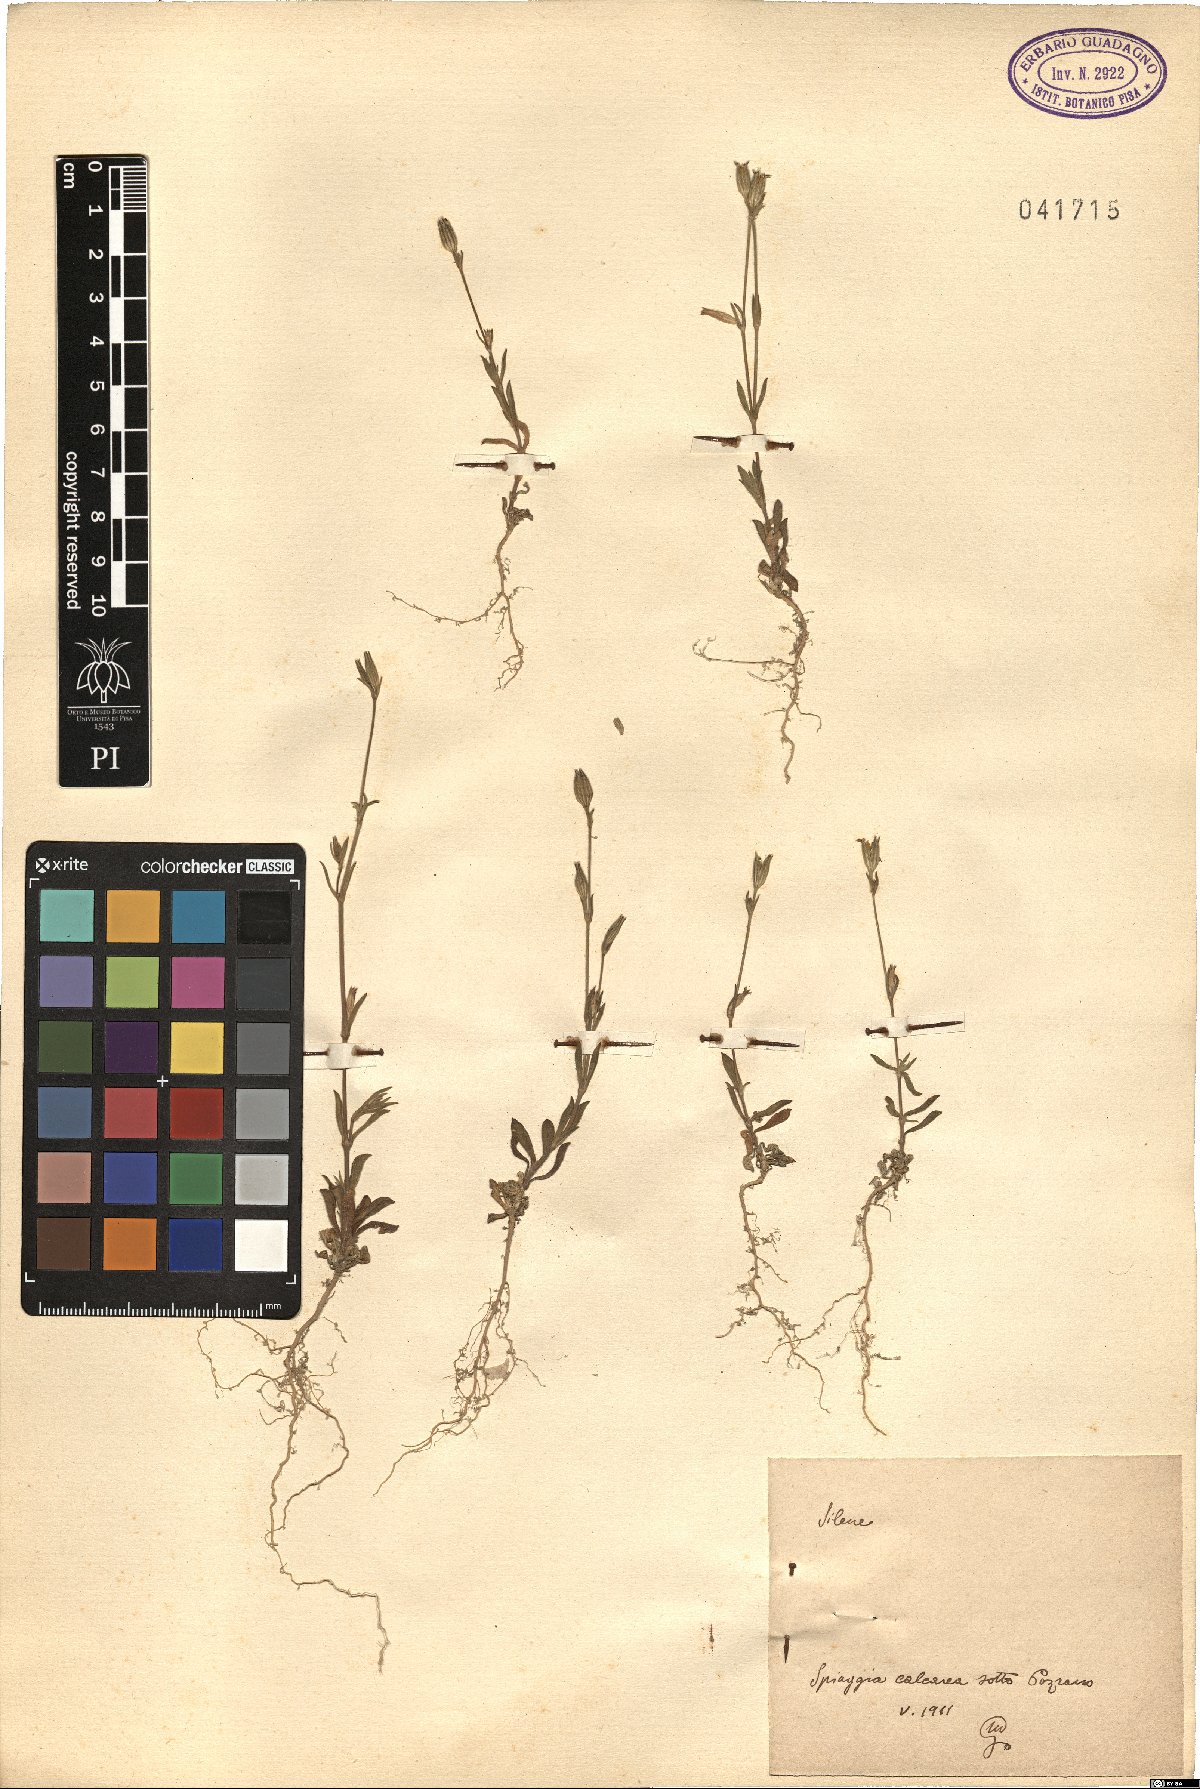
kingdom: Plantae
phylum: Tracheophyta
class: Magnoliopsida
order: Caryophyllales
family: Caryophyllaceae
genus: Silene
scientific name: Silene
